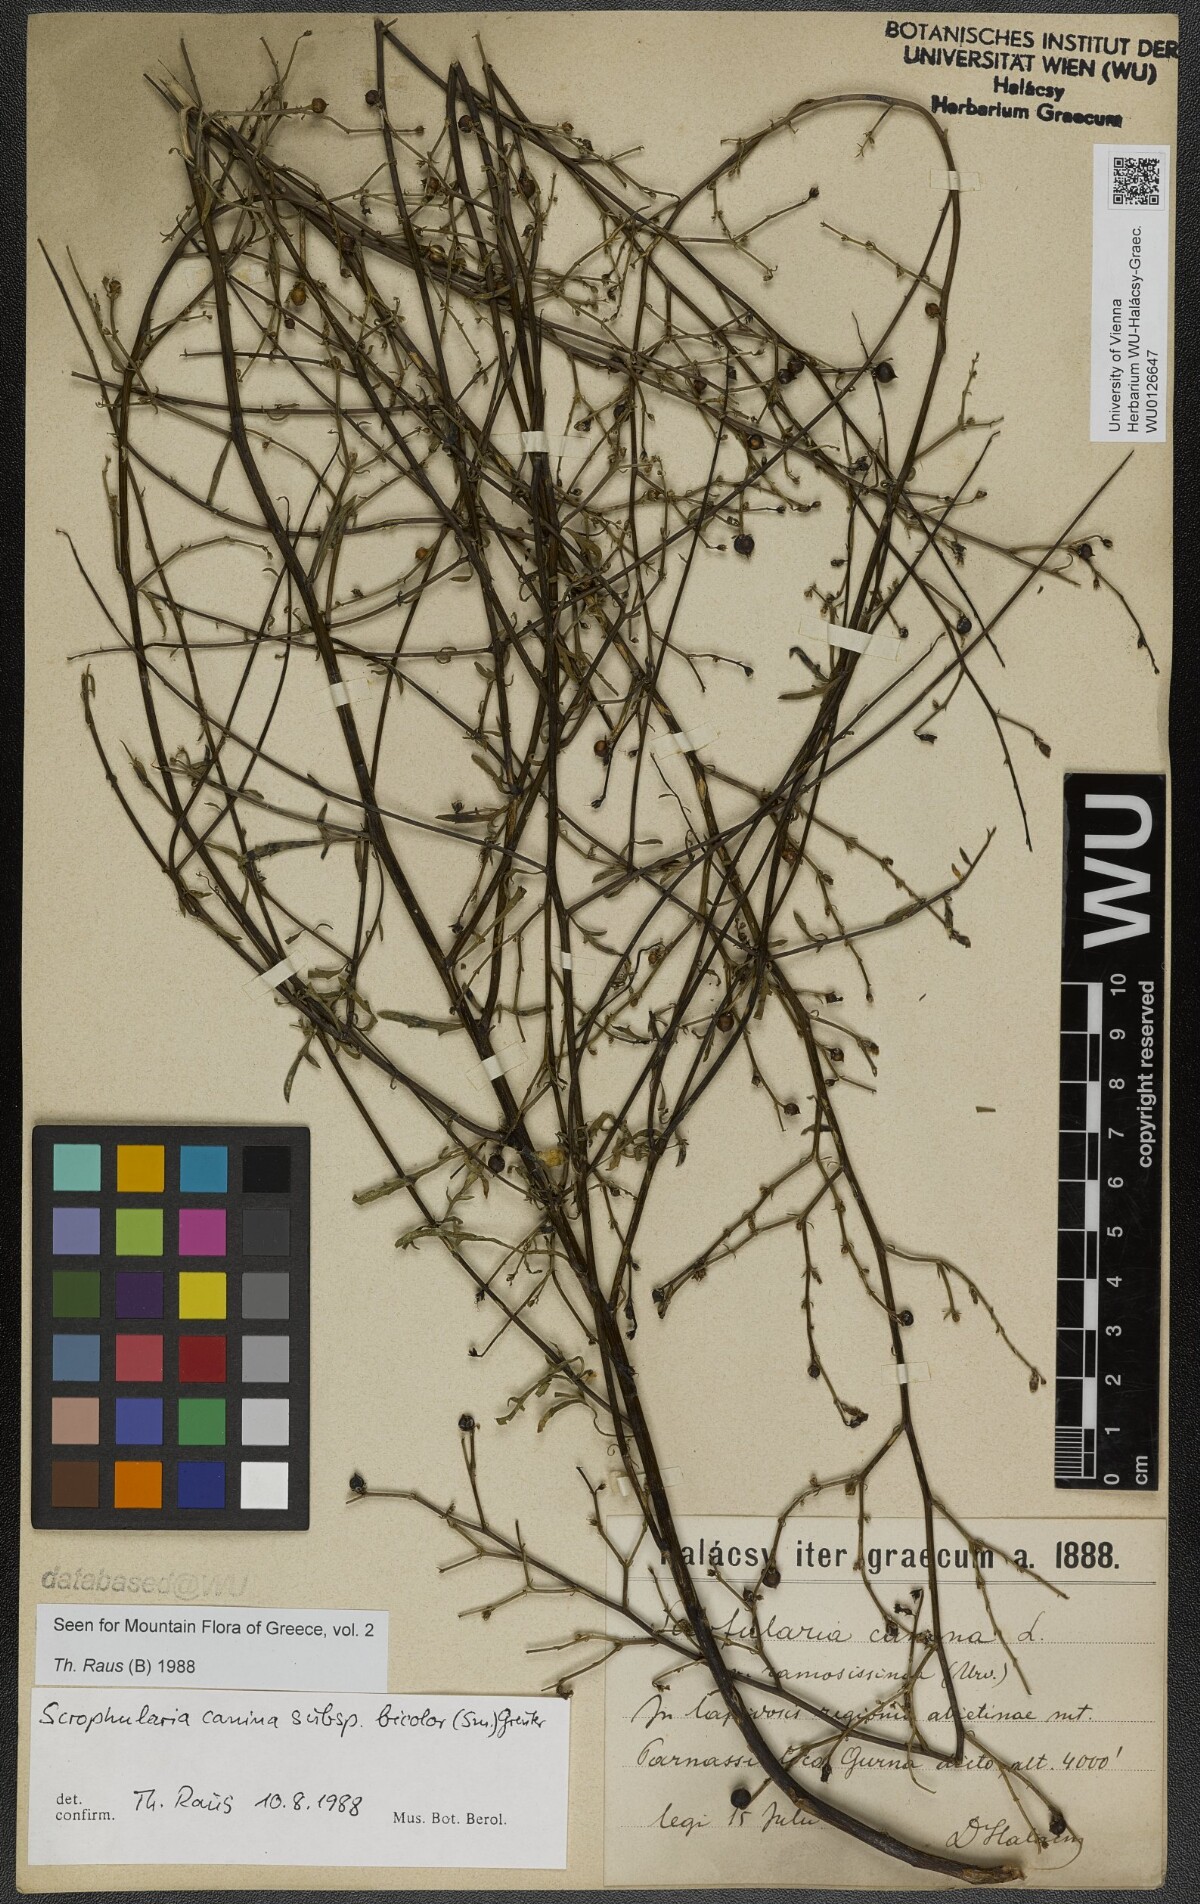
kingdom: Plantae
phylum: Tracheophyta
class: Magnoliopsida
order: Lamiales
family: Scrophulariaceae
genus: Scrophularia
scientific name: Scrophularia canina
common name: French figwort
